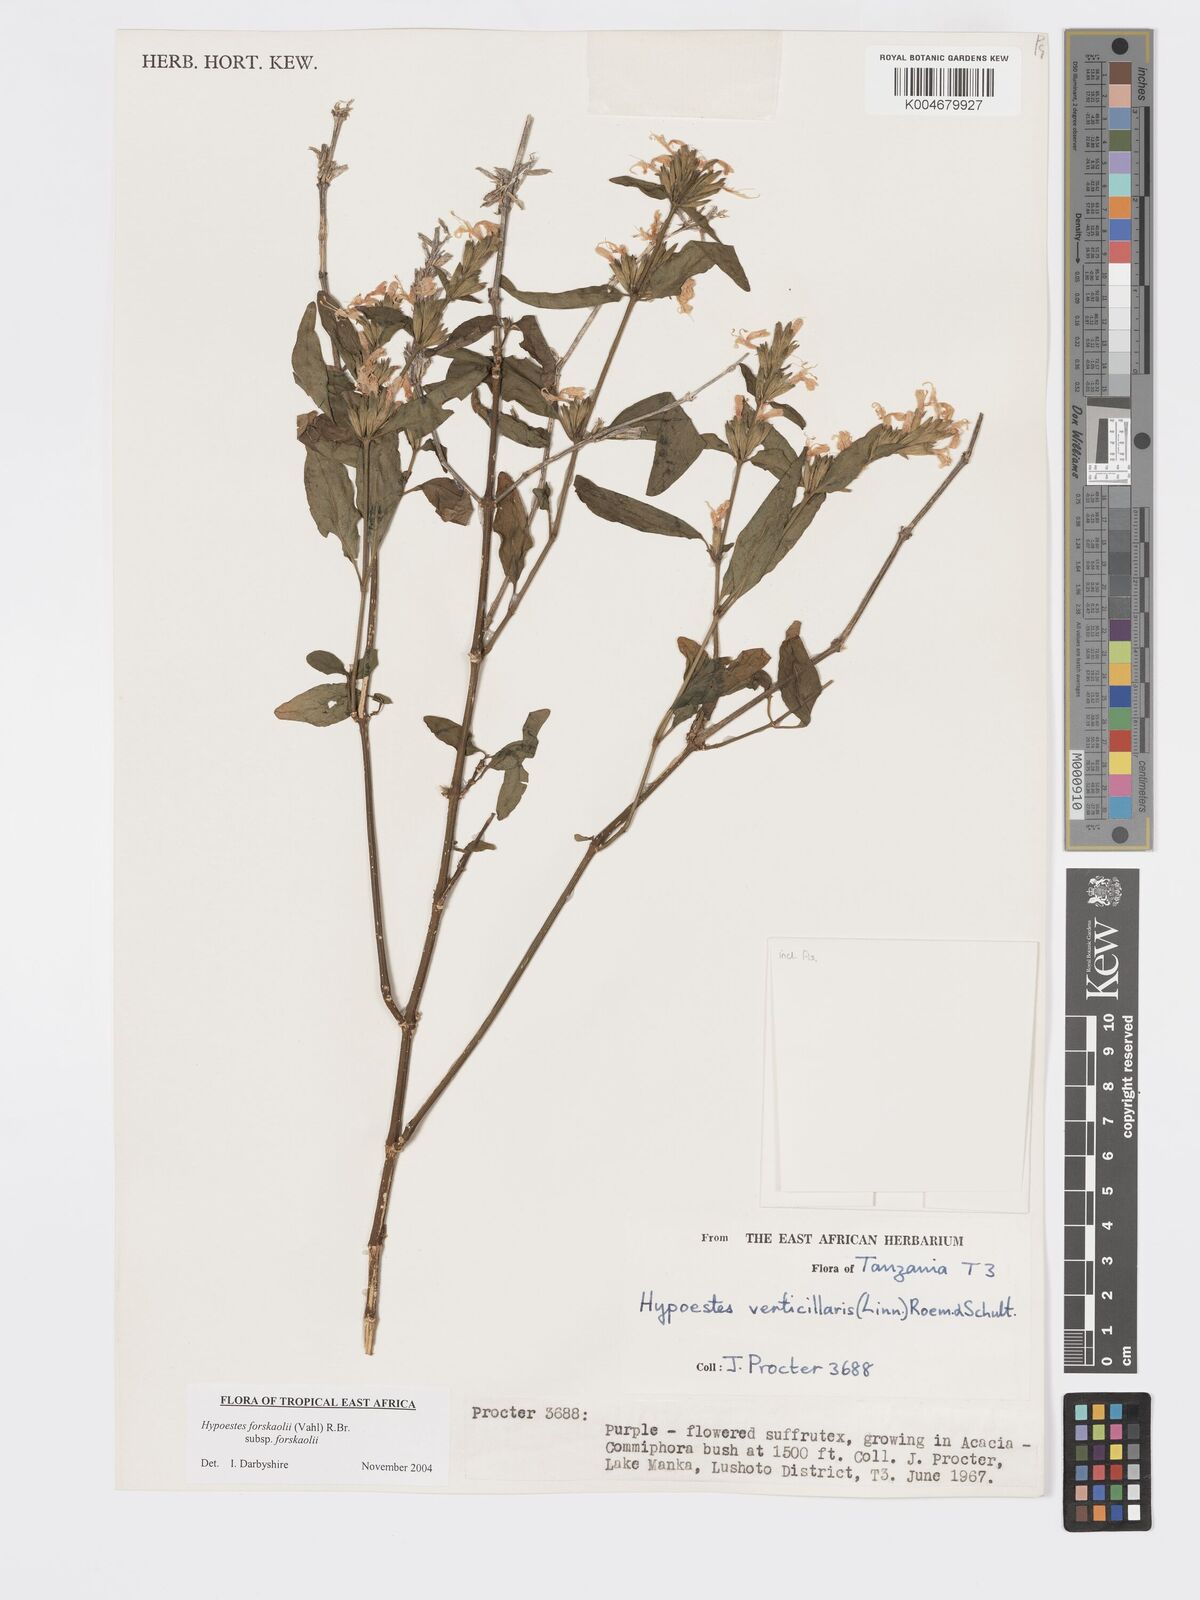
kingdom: Plantae
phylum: Tracheophyta
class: Magnoliopsida
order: Lamiales
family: Acanthaceae
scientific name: Acanthaceae
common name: Acanthaceae
